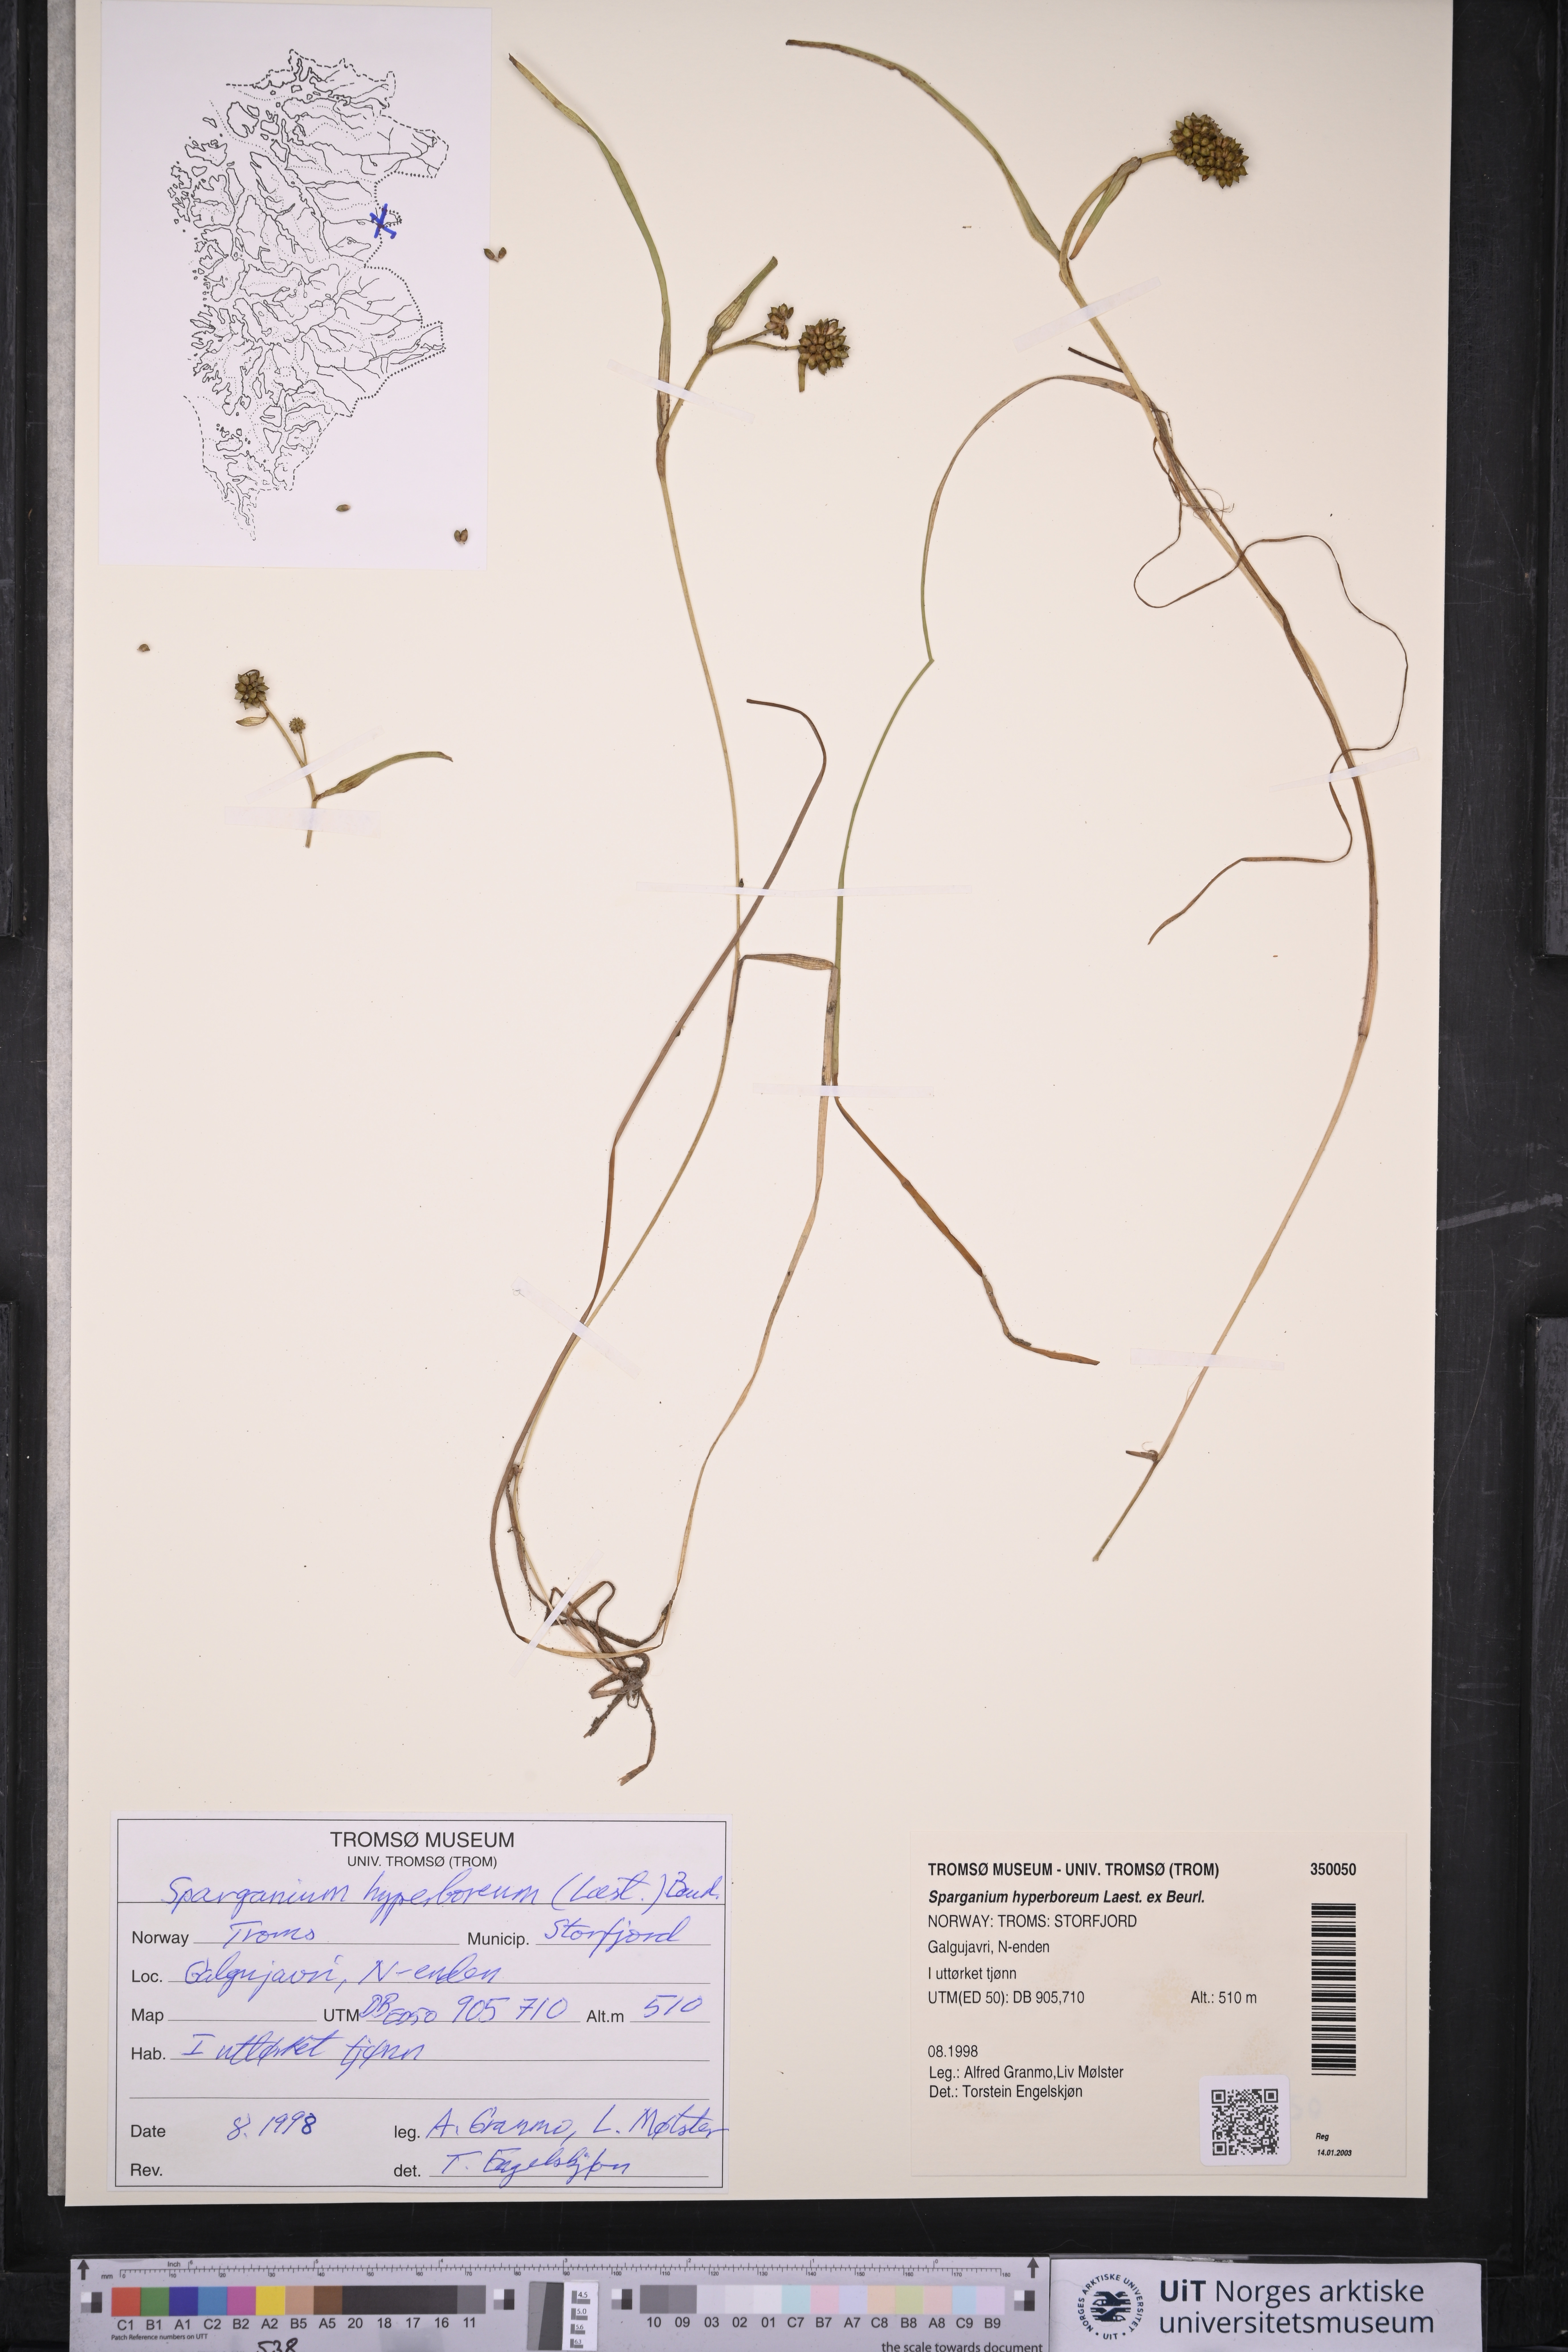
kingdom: Plantae
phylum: Tracheophyta
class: Liliopsida
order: Poales
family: Typhaceae
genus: Sparganium
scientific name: Sparganium hyperboreum
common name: Arctic burreed
